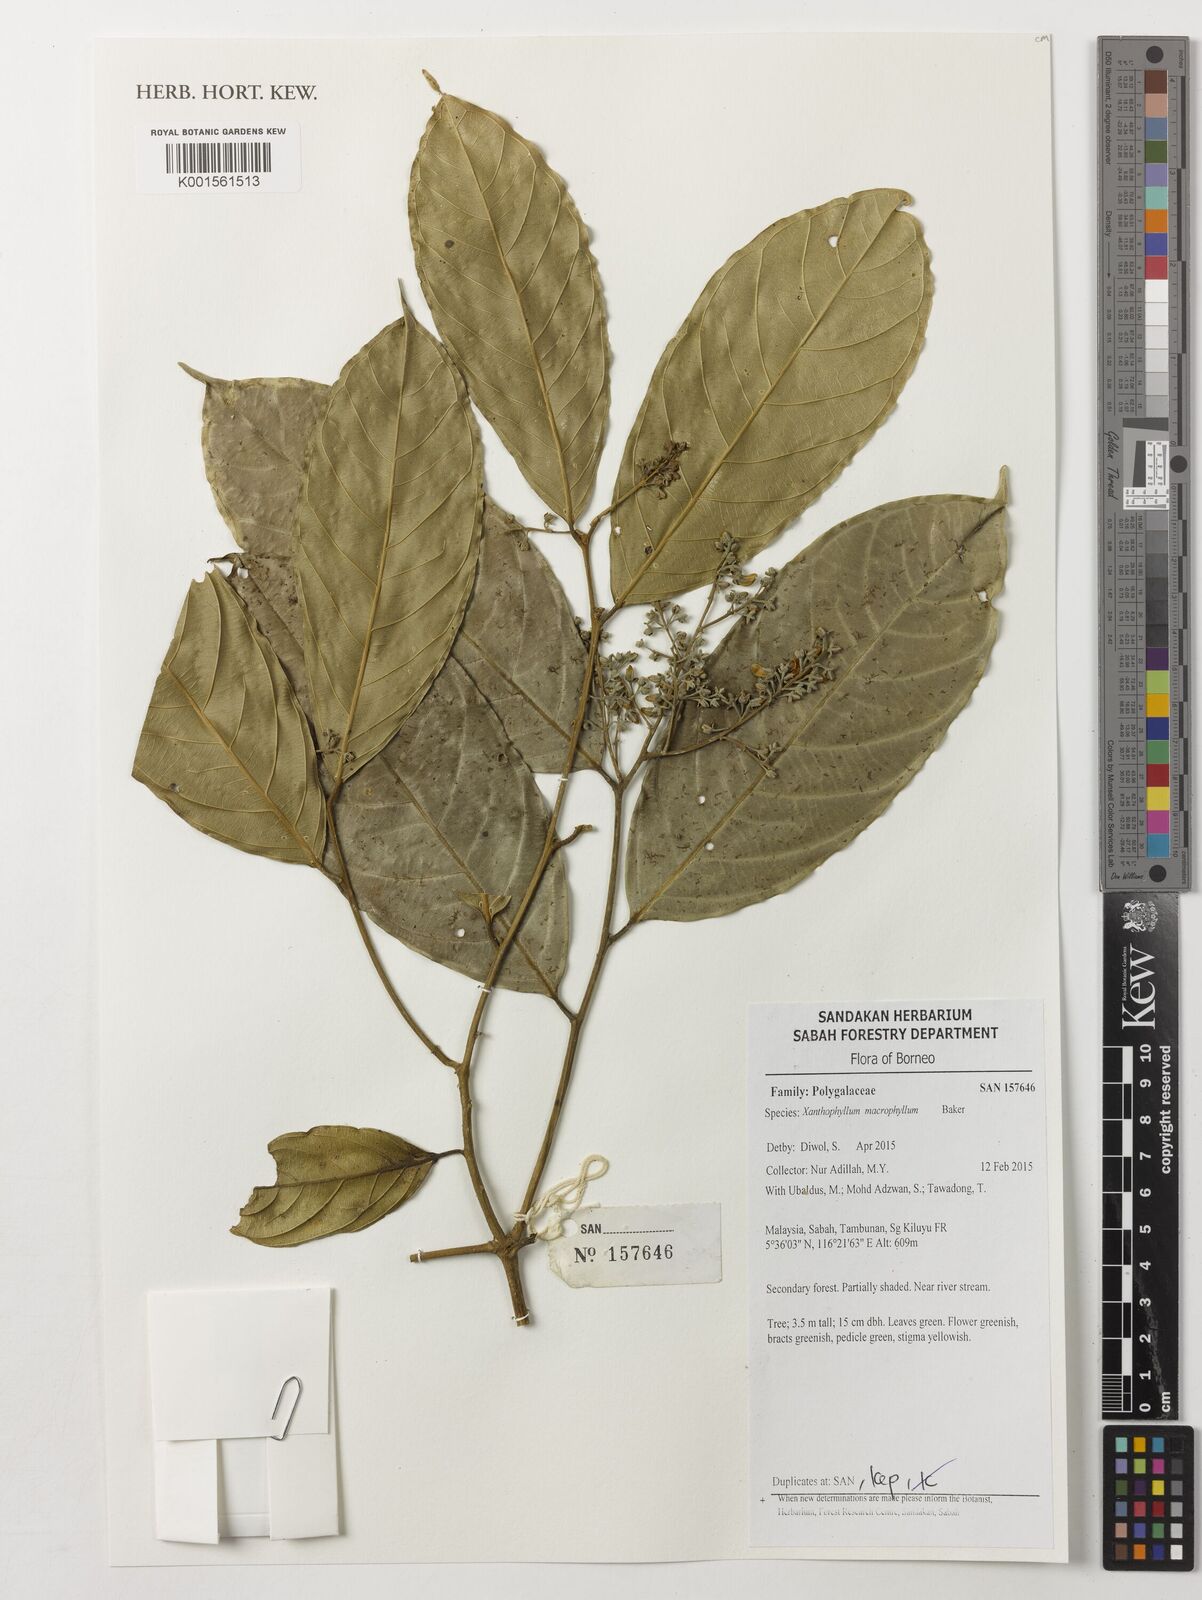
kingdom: Plantae
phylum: Tracheophyta
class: Magnoliopsida
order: Fabales
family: Polygalaceae
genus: Xanthophyllum
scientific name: Xanthophyllum macrophyllum
